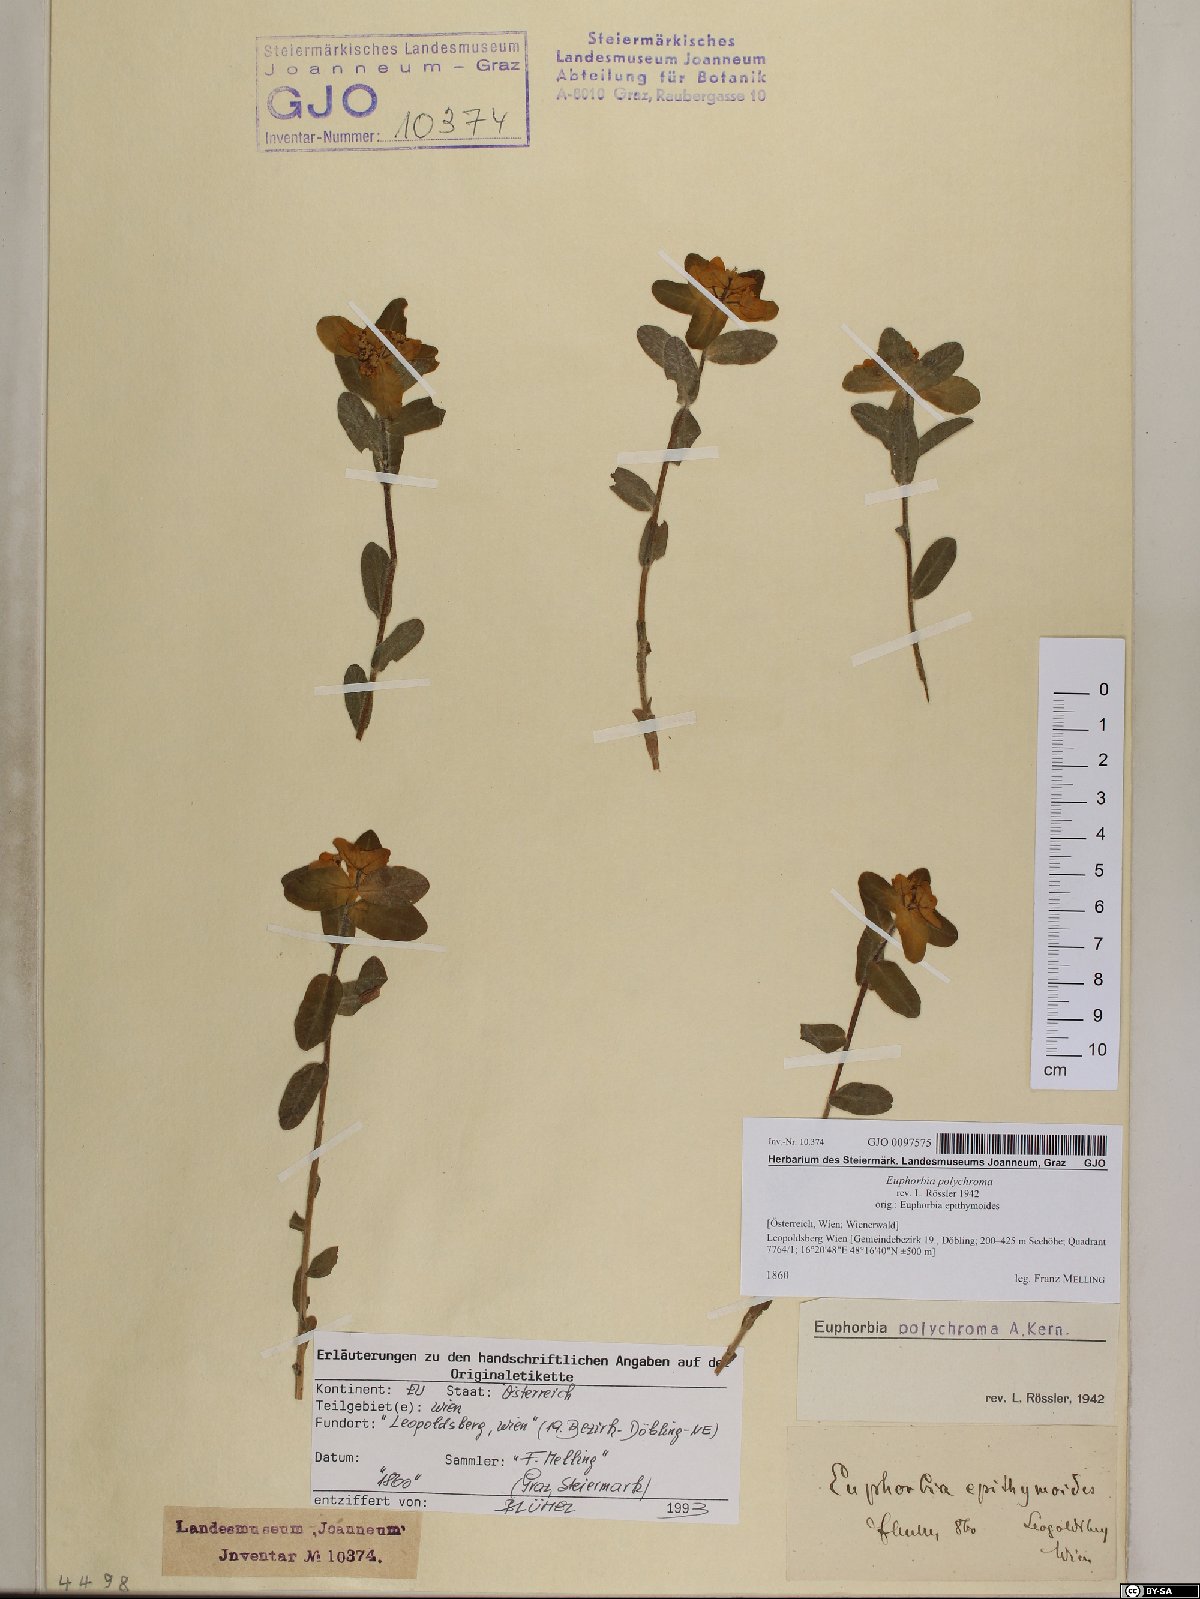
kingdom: Plantae
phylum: Tracheophyta
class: Magnoliopsida
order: Malpighiales
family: Euphorbiaceae
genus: Euphorbia
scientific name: Euphorbia epithymoides
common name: Cushion spurge
